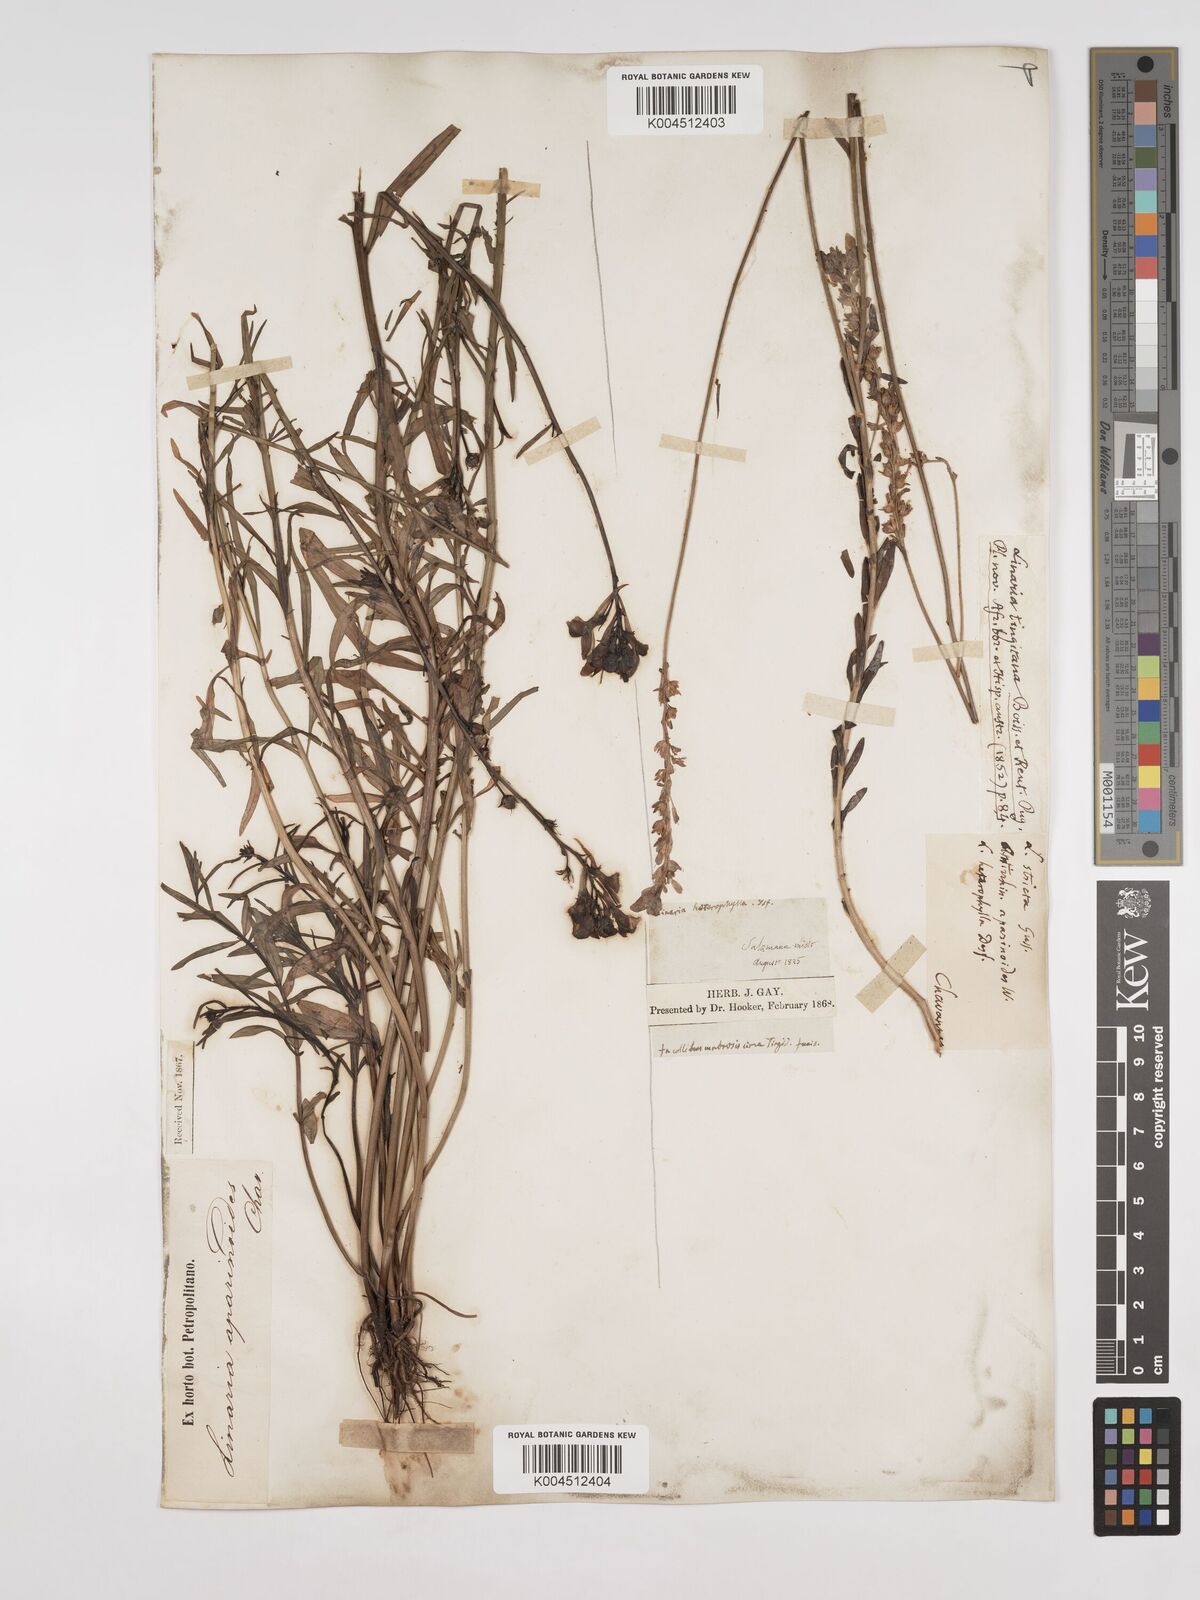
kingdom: Plantae
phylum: Tracheophyta
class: Magnoliopsida
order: Lamiales
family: Plantaginaceae
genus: Linaria
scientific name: Linaria multicaulis
